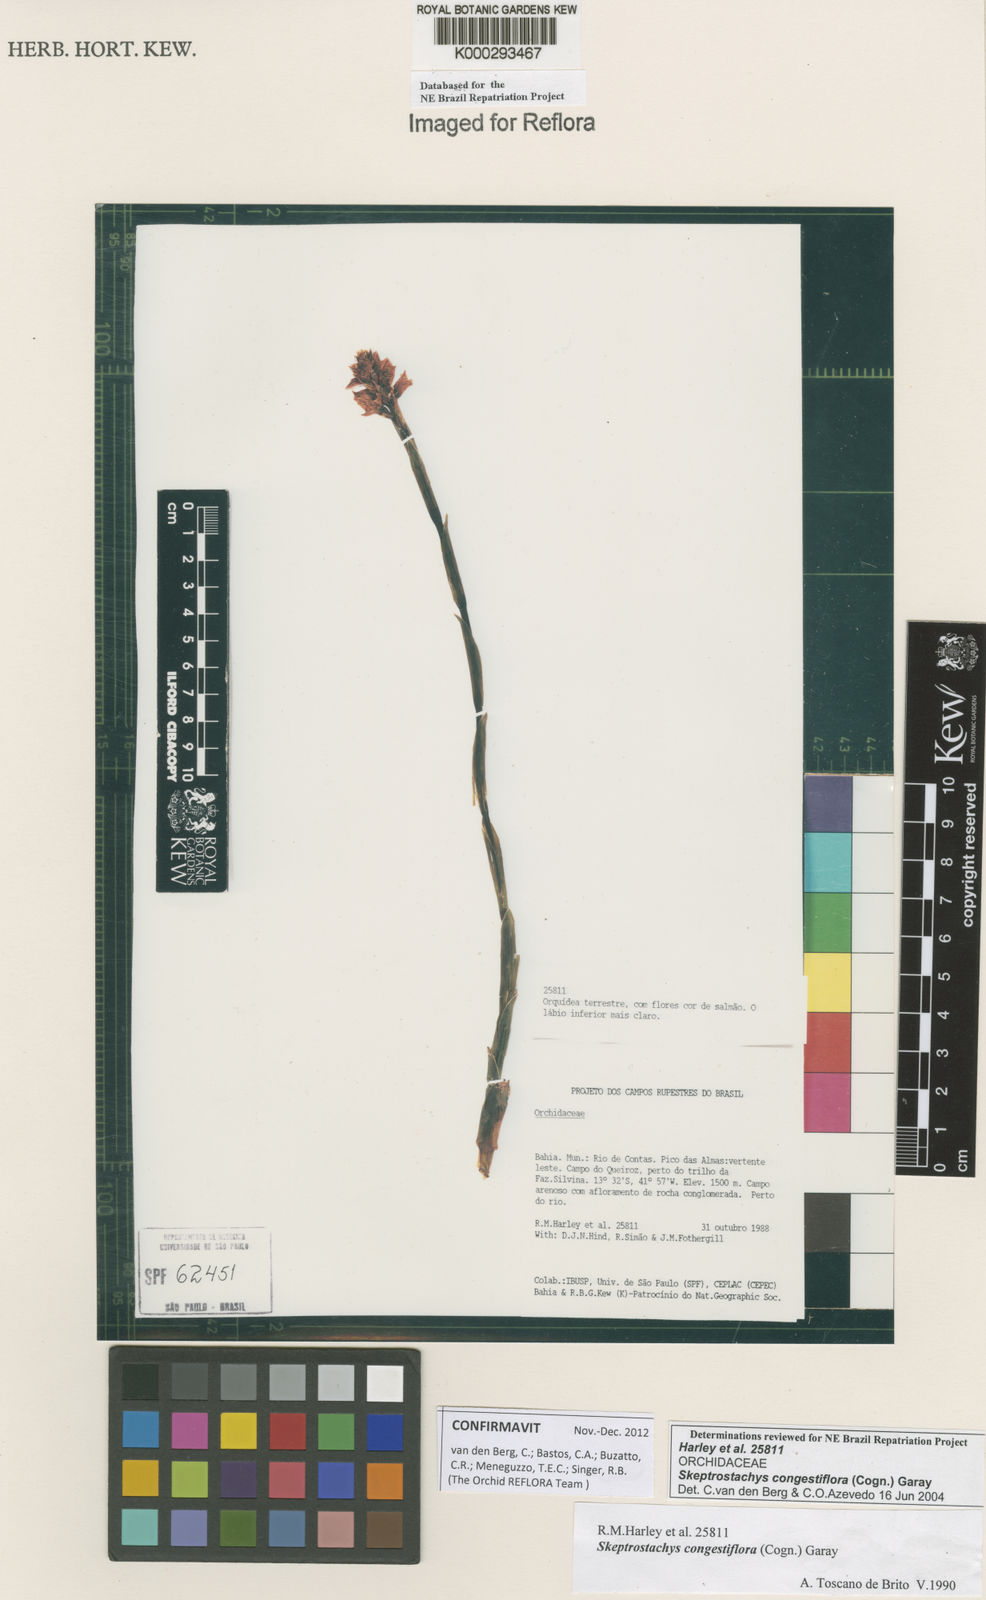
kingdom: Plantae
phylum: Tracheophyta
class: Liliopsida
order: Asparagales
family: Orchidaceae
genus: Skeptrostachys
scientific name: Skeptrostachys congestiflora
